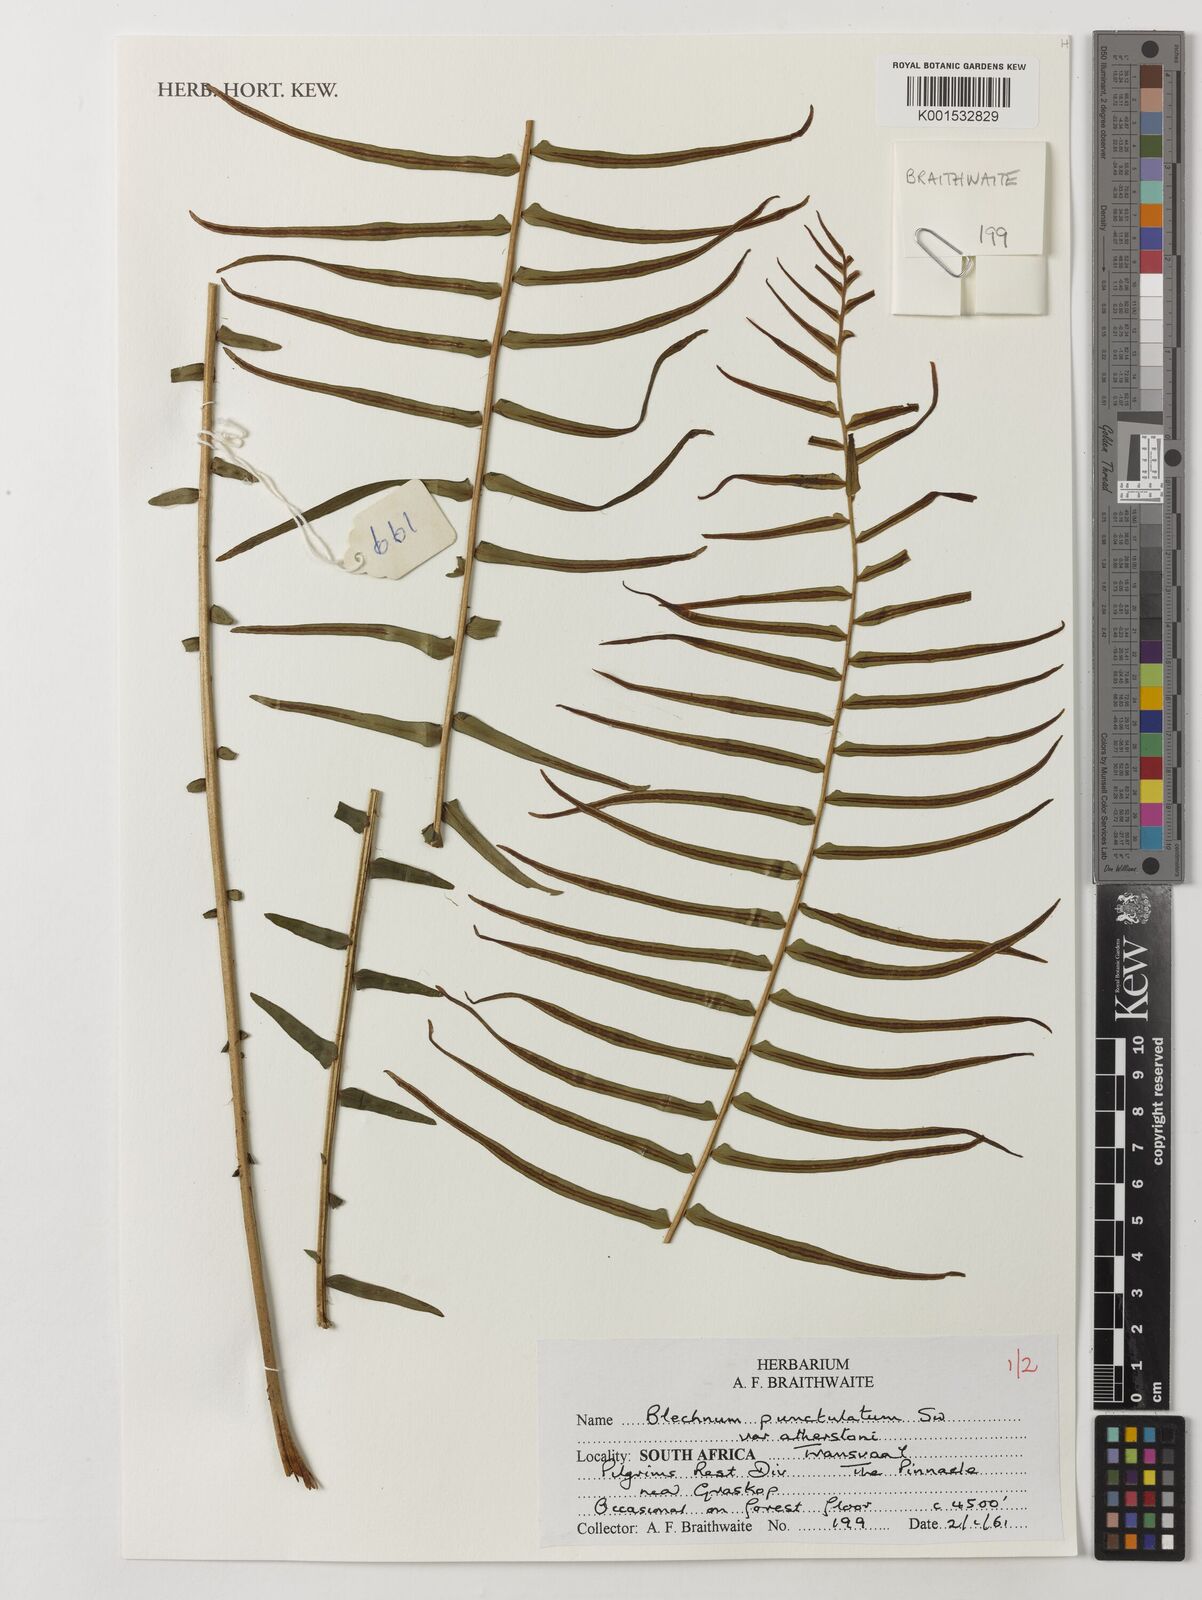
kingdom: Plantae
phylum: Tracheophyta
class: Polypodiopsida
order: Polypodiales
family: Blechnaceae
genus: Blechnum
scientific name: Blechnum punctulatum
